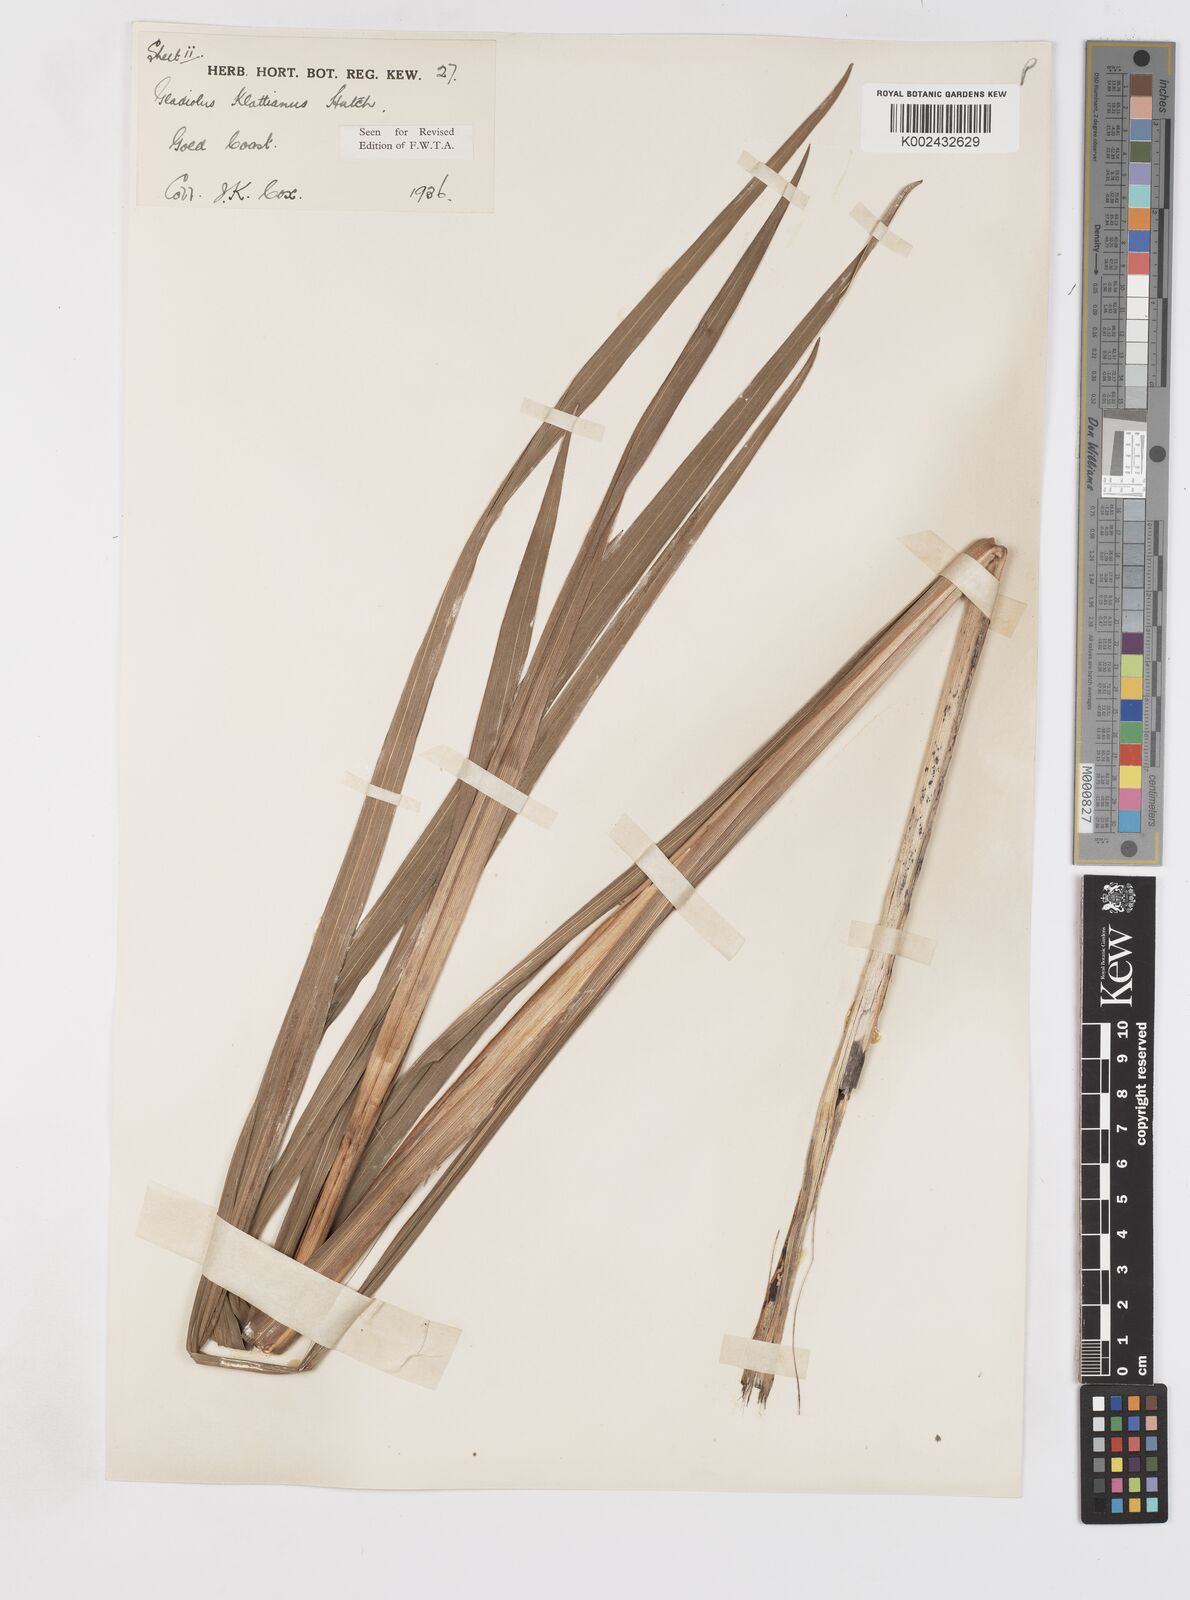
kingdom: Plantae
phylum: Tracheophyta
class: Liliopsida
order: Asparagales
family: Iridaceae
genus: Gladiolus
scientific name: Gladiolus gregarius
